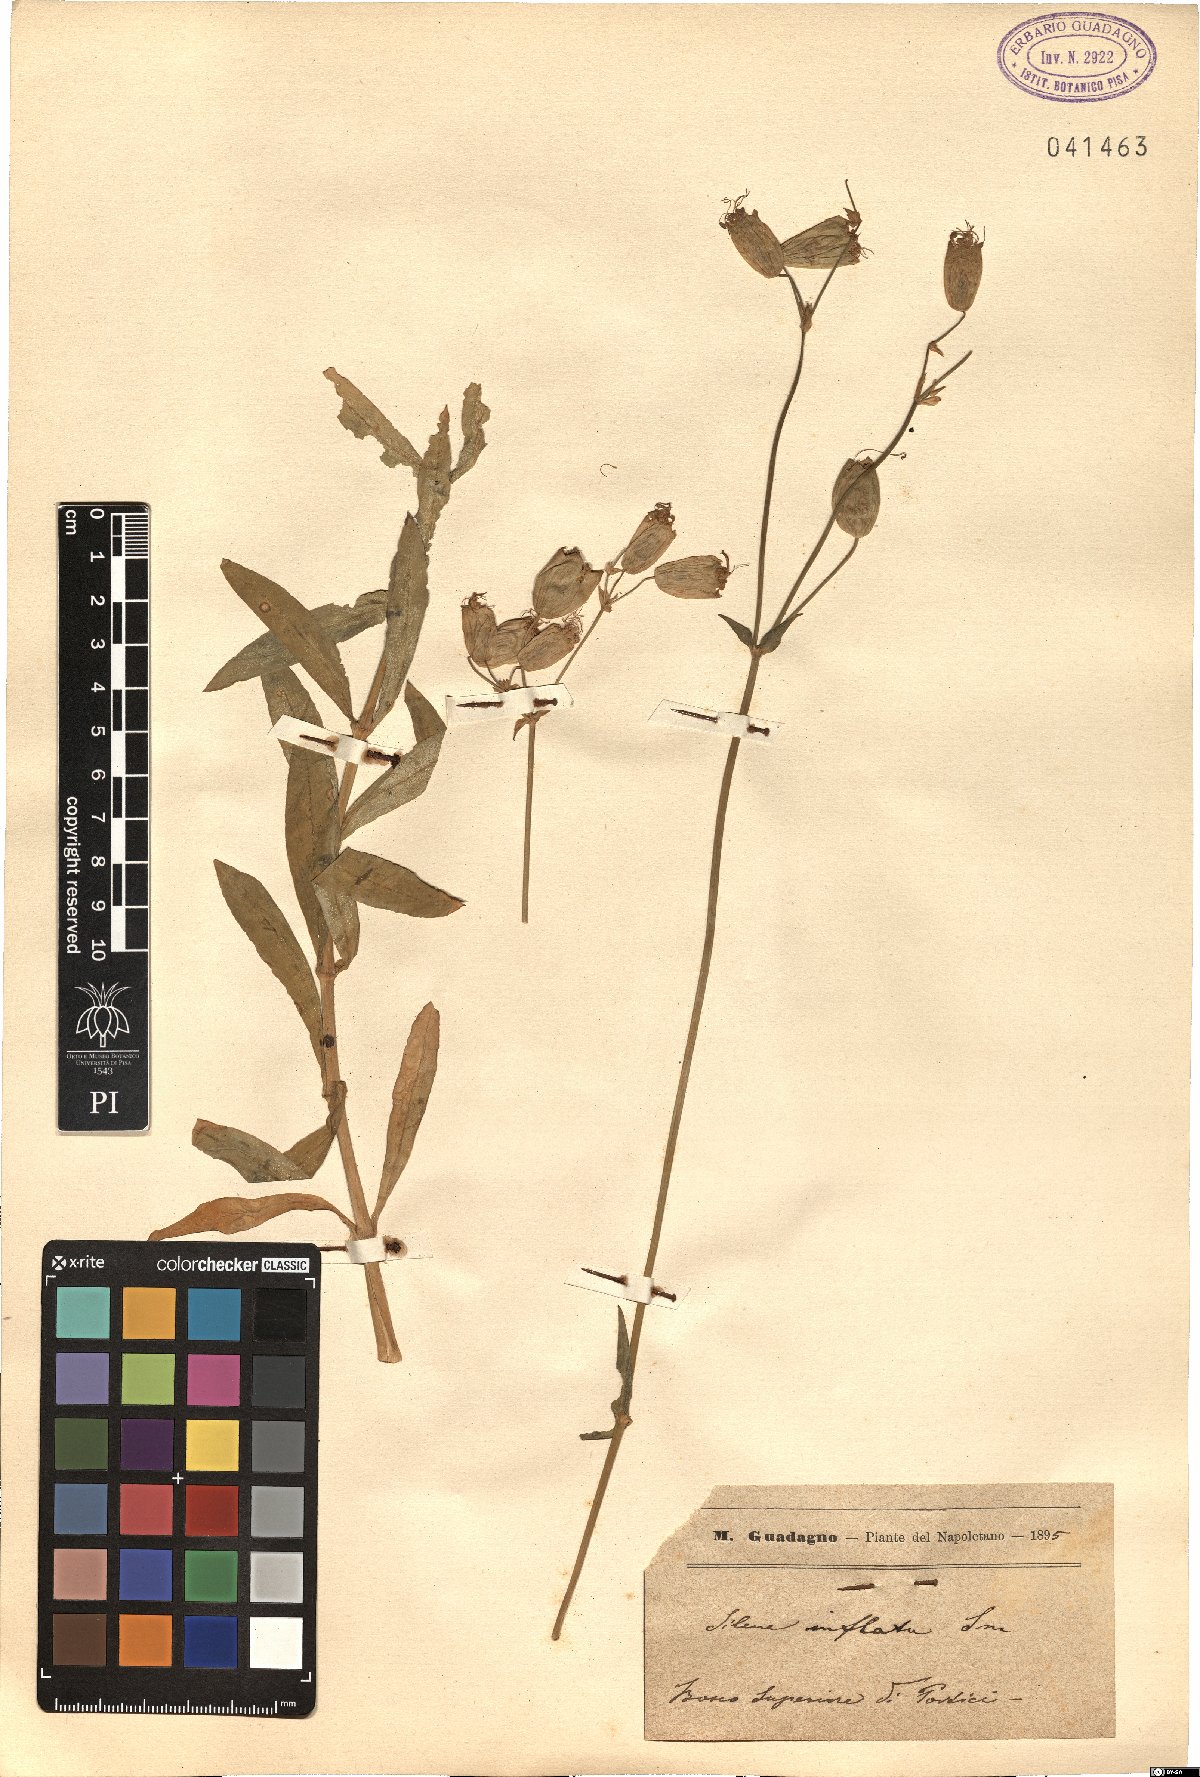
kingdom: Plantae
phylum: Tracheophyta
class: Magnoliopsida
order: Caryophyllales
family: Caryophyllaceae
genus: Silene
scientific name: Silene vulgaris
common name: Bladder campion
